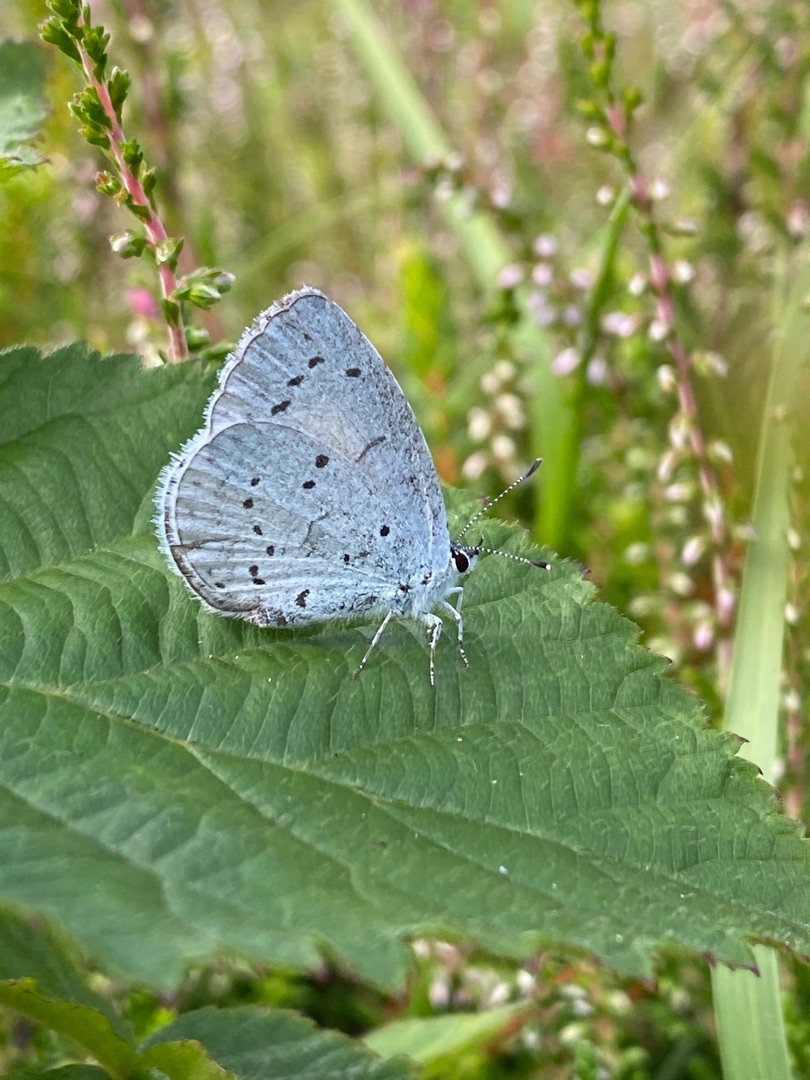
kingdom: Animalia
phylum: Arthropoda
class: Insecta
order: Lepidoptera
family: Lycaenidae
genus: Celastrina
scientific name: Celastrina argiolus
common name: Skovblåfugl
